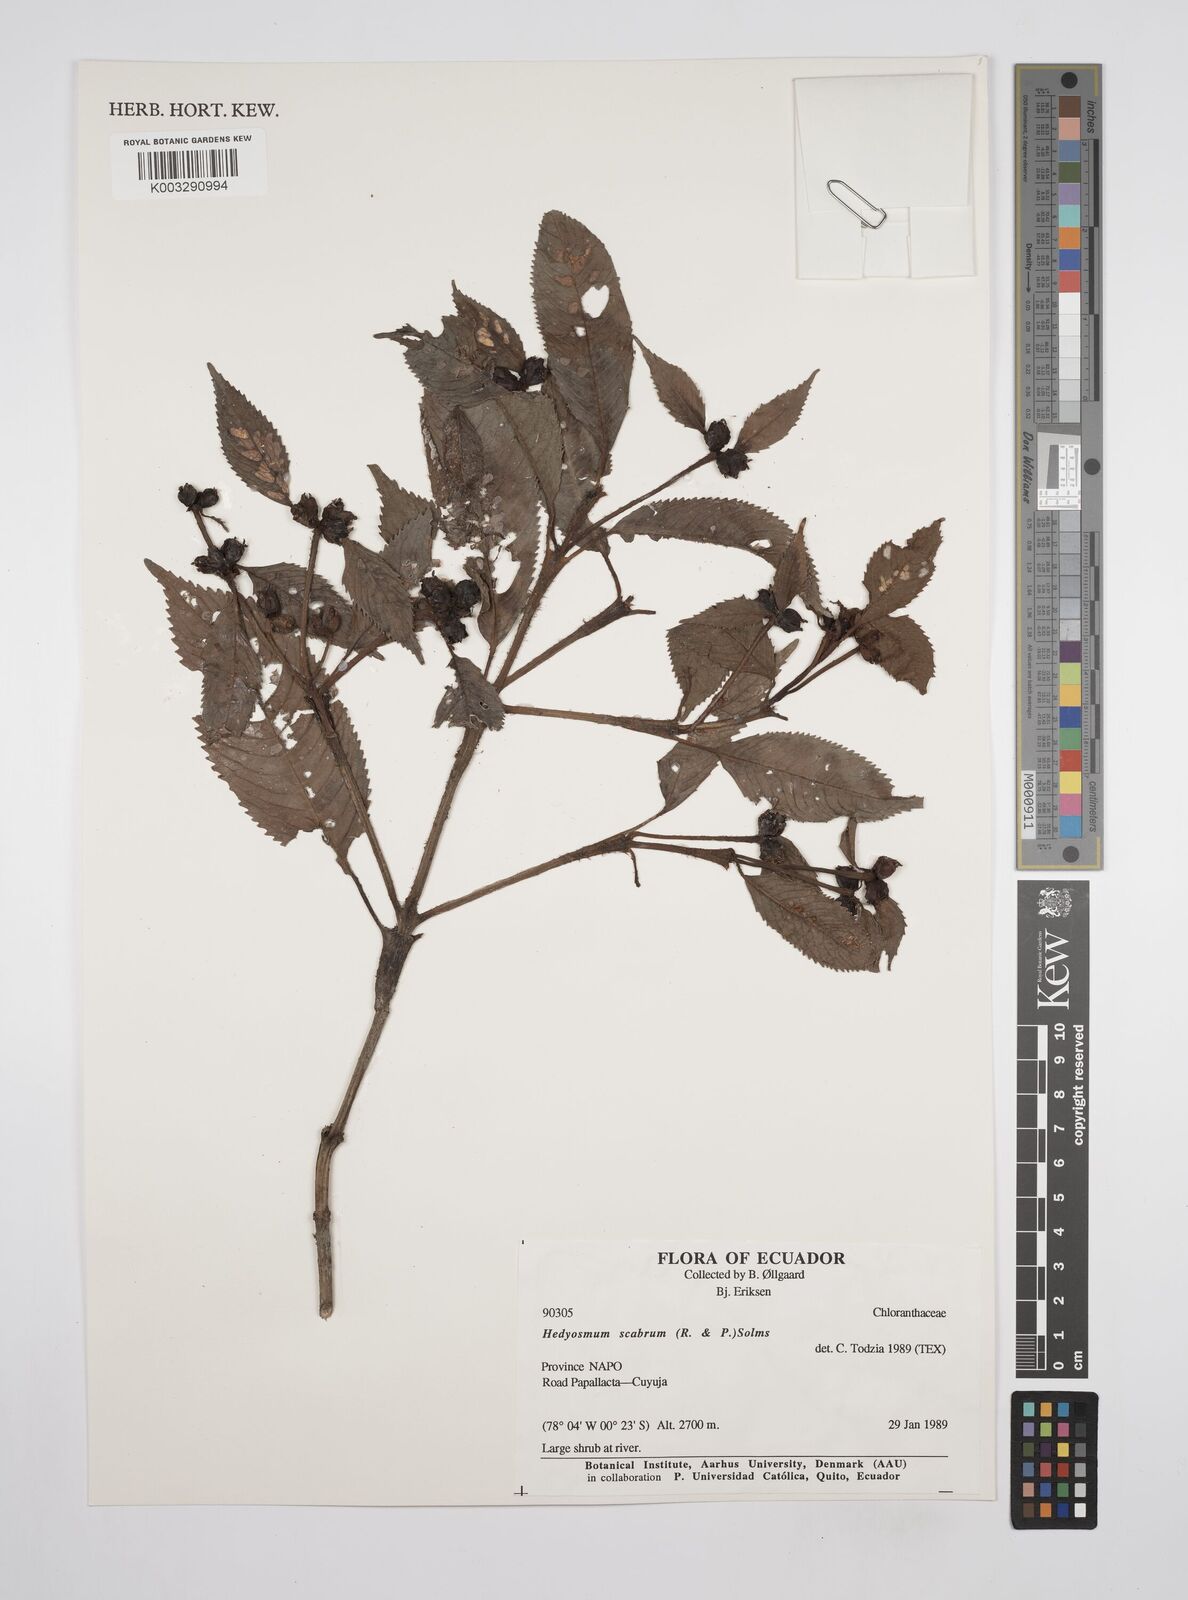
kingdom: Plantae
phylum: Tracheophyta
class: Magnoliopsida
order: Chloranthales
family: Chloranthaceae
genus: Hedyosmum
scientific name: Hedyosmum scabrum
